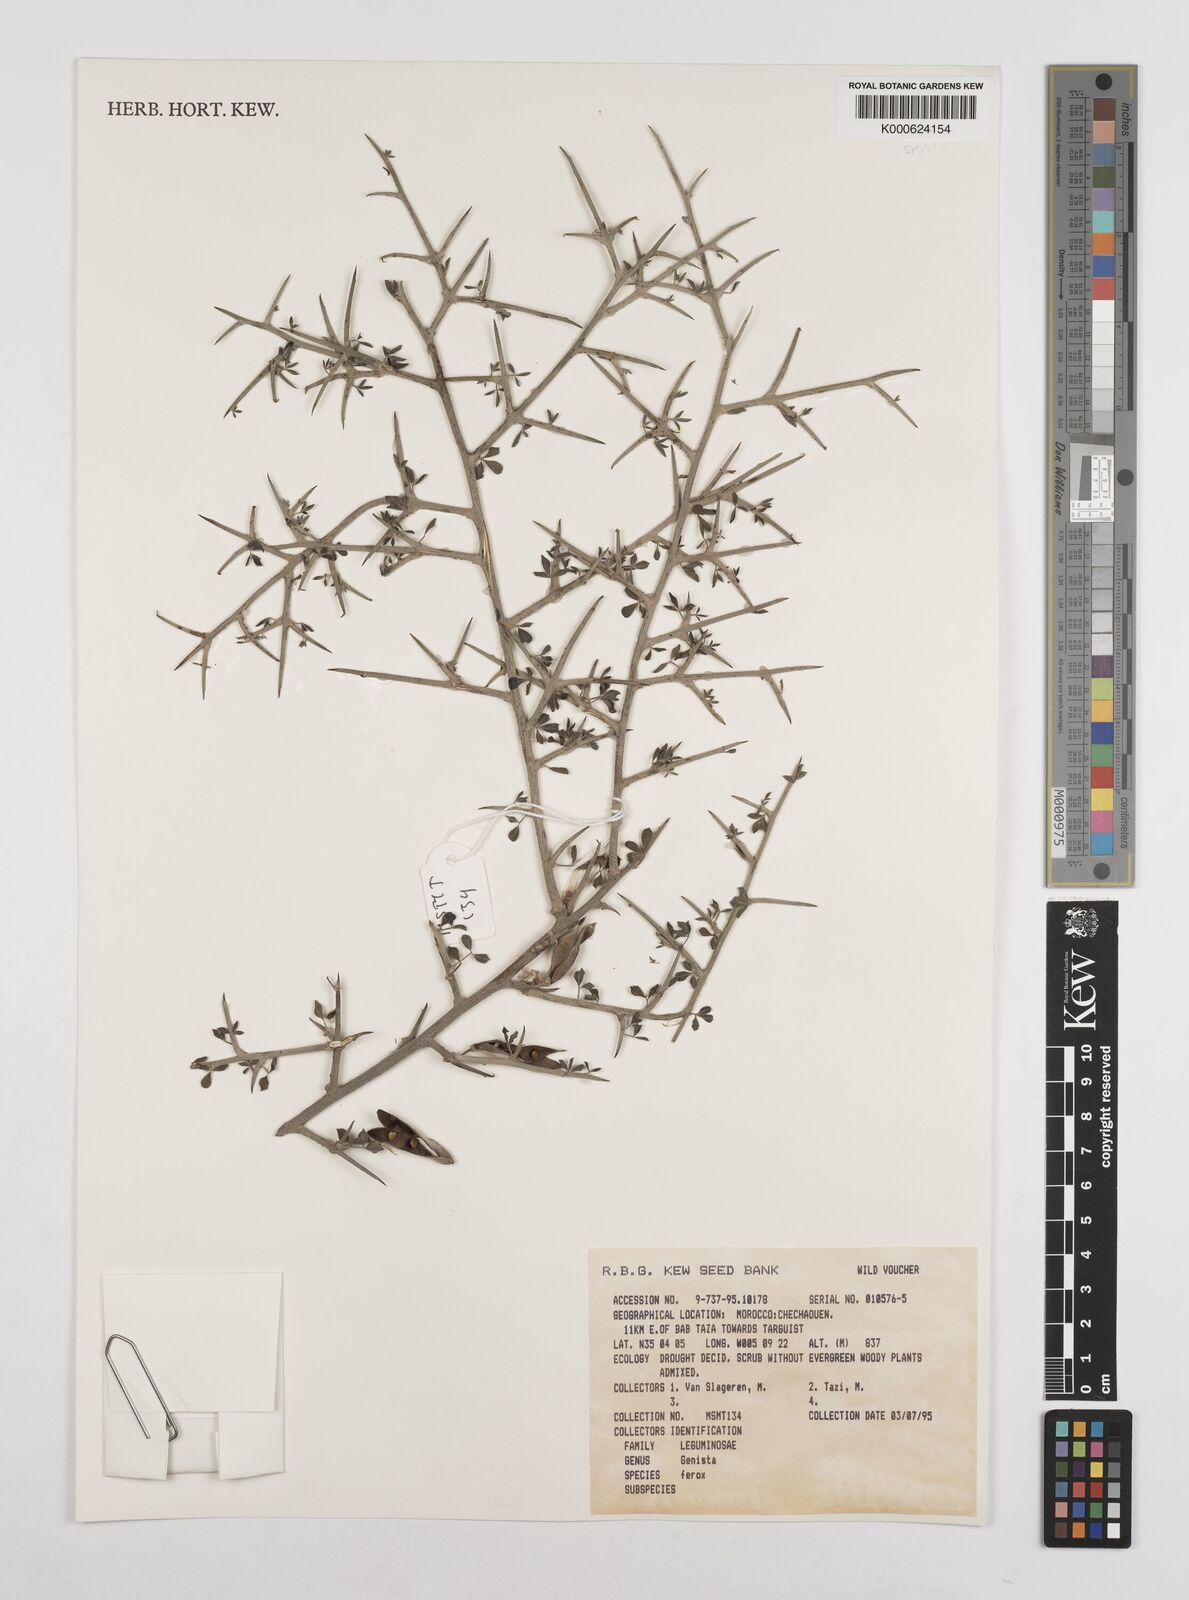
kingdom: Plantae
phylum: Tracheophyta
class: Magnoliopsida
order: Fabales
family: Fabaceae
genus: Genista
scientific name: Genista ferox
